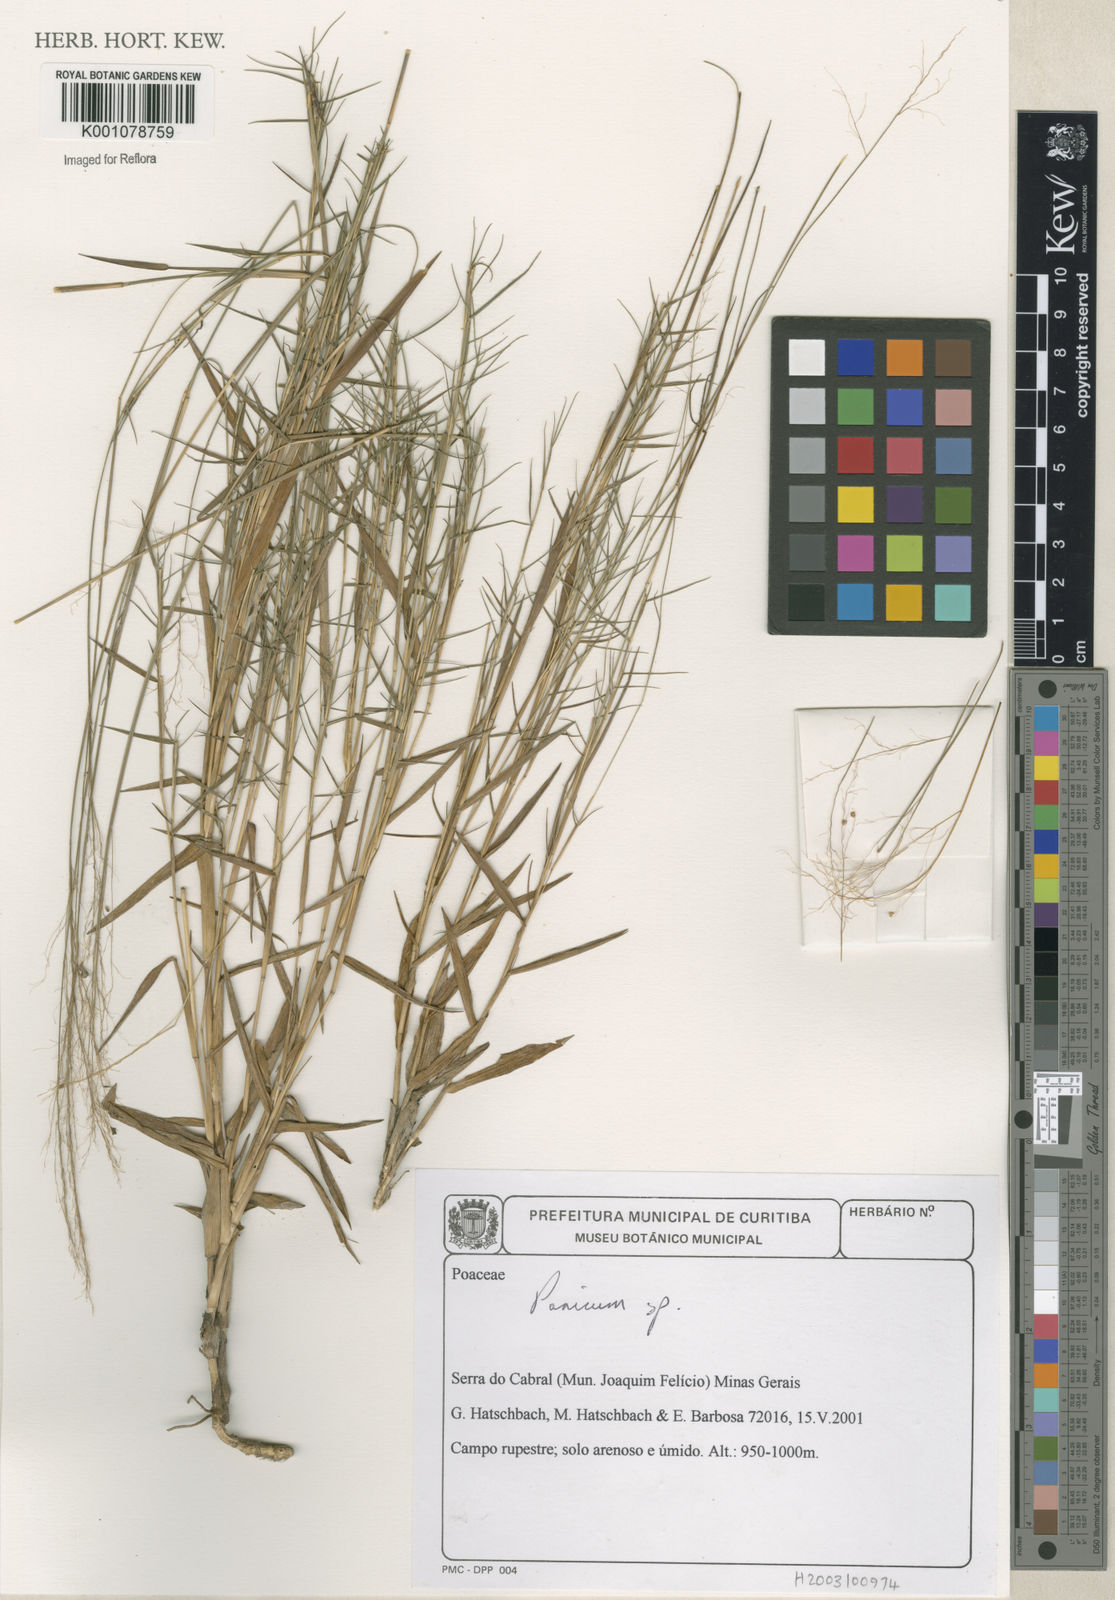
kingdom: Plantae
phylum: Tracheophyta
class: Liliopsida
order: Poales
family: Poaceae
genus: Panicum
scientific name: Panicum
